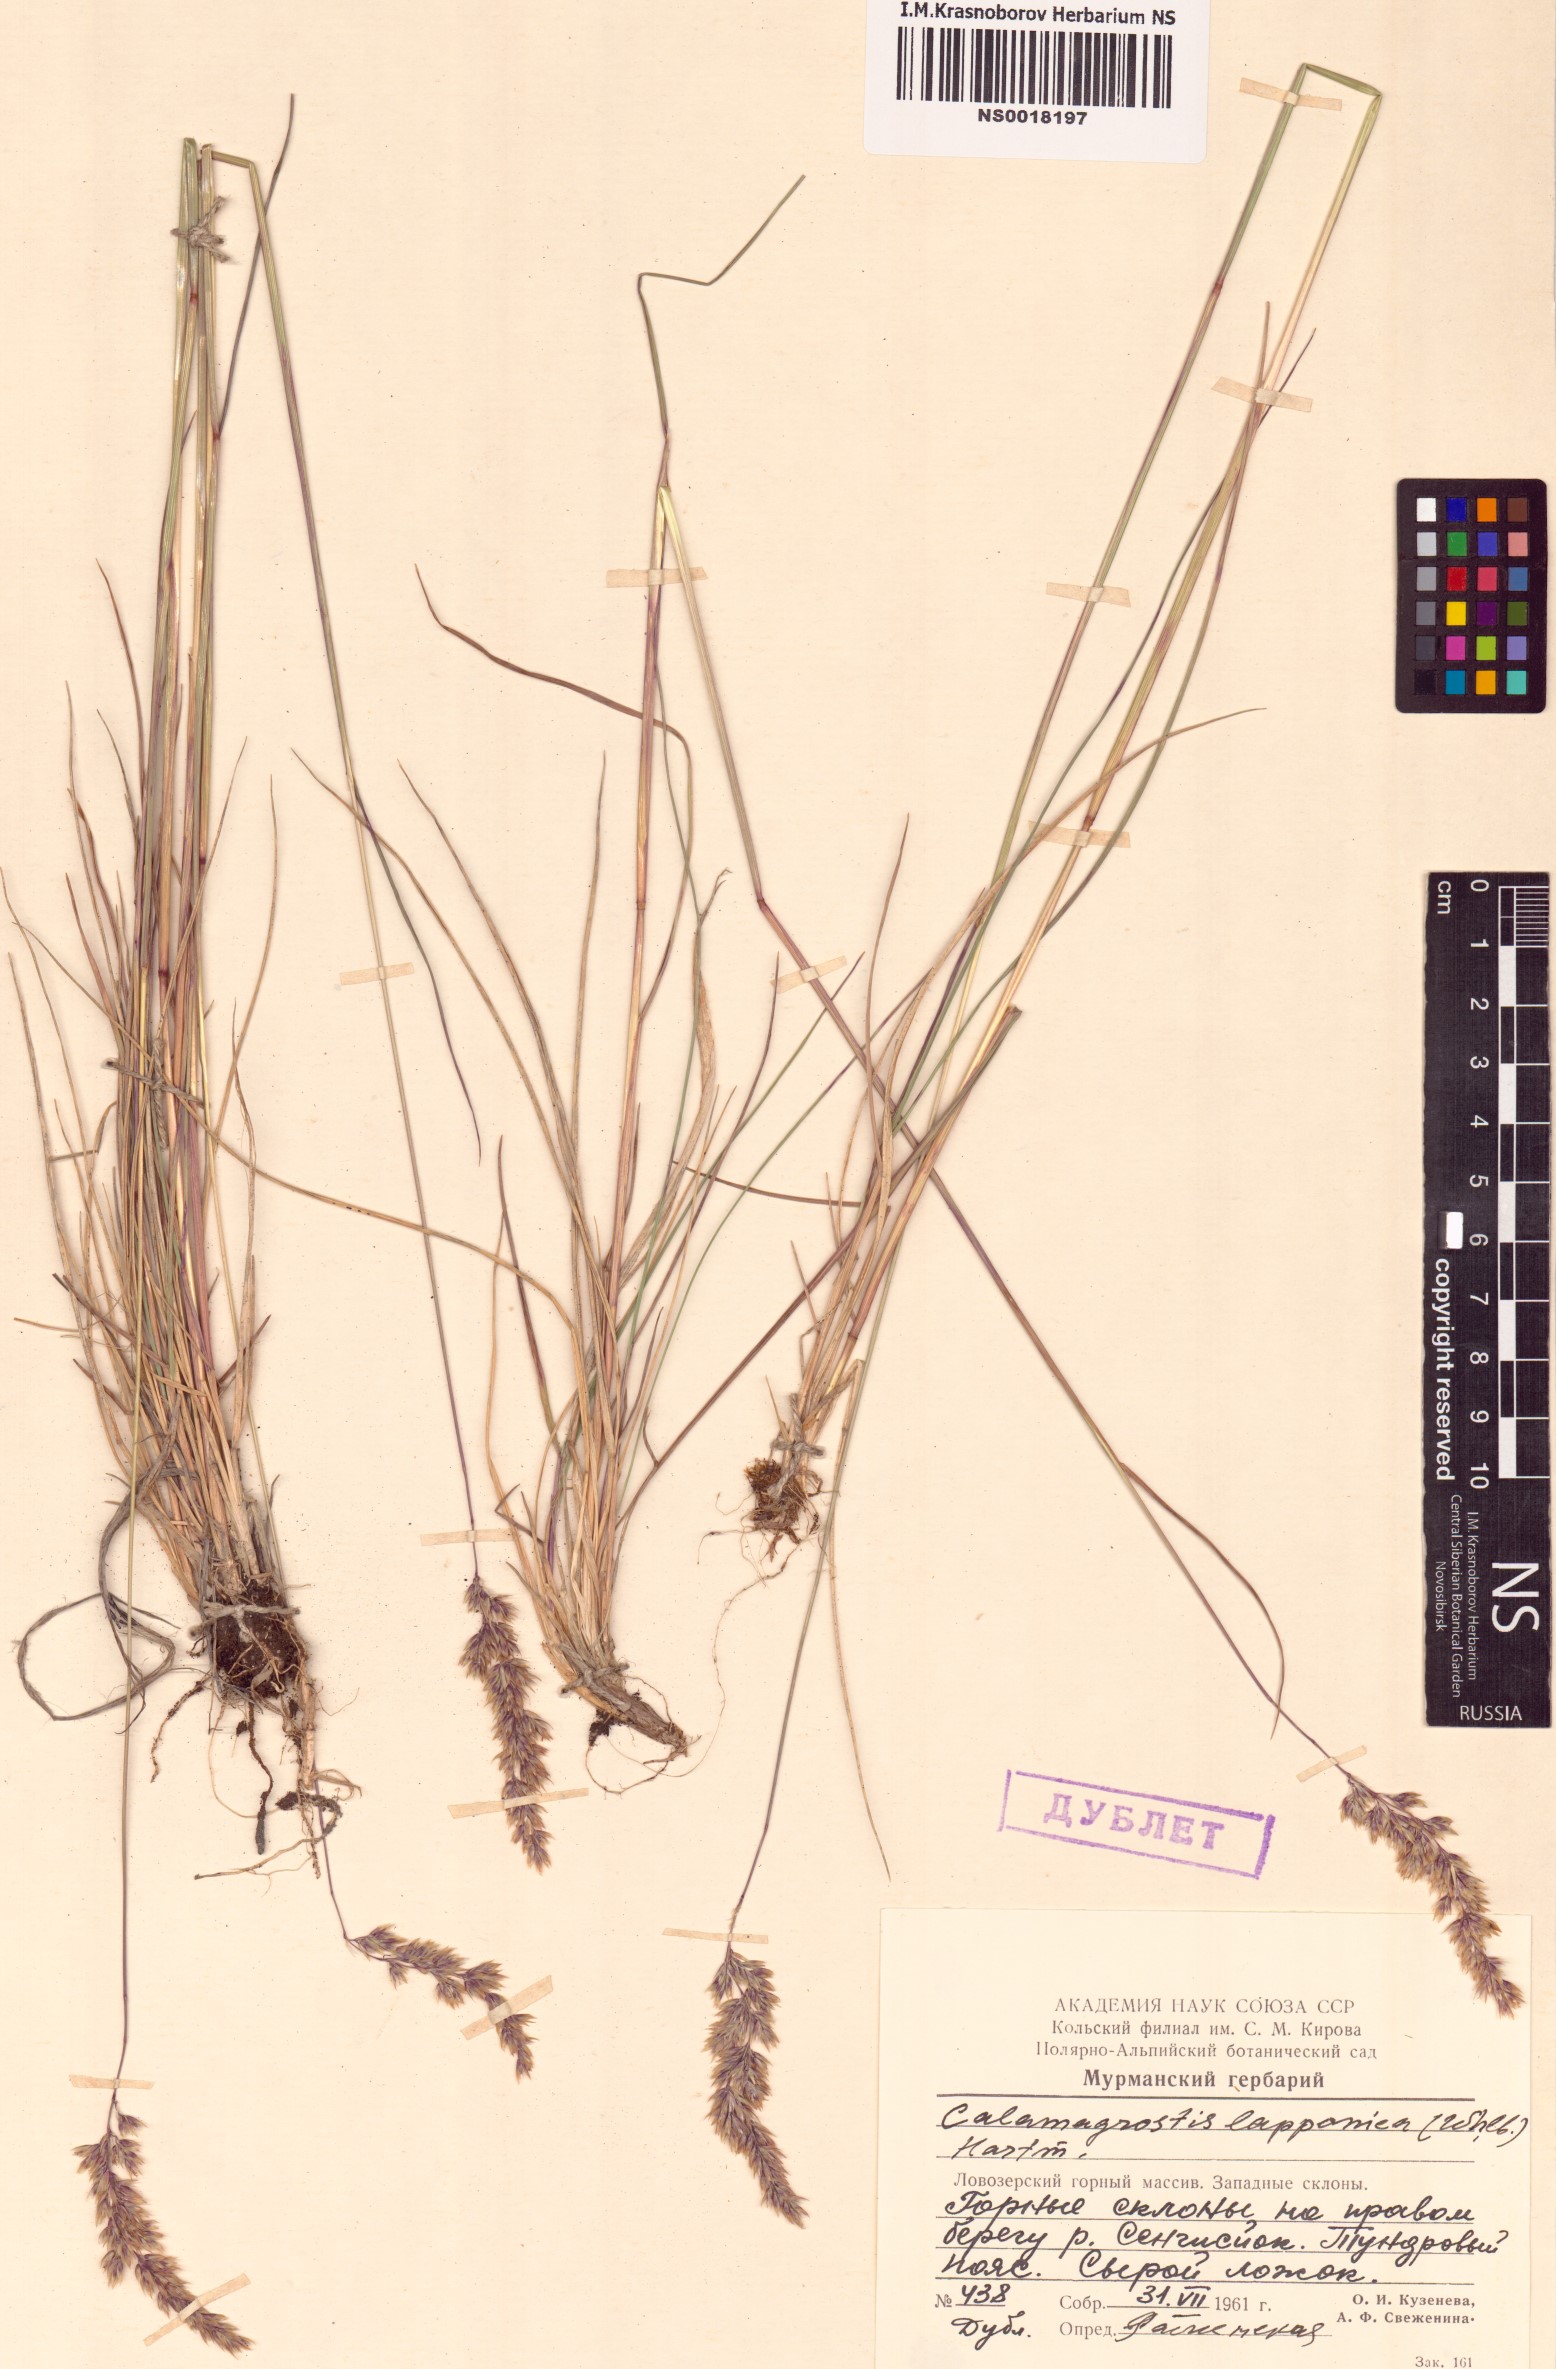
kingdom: Plantae
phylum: Tracheophyta
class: Liliopsida
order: Poales
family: Poaceae
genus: Calamagrostis
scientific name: Calamagrostis lapponica
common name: Lapland reedgrass
